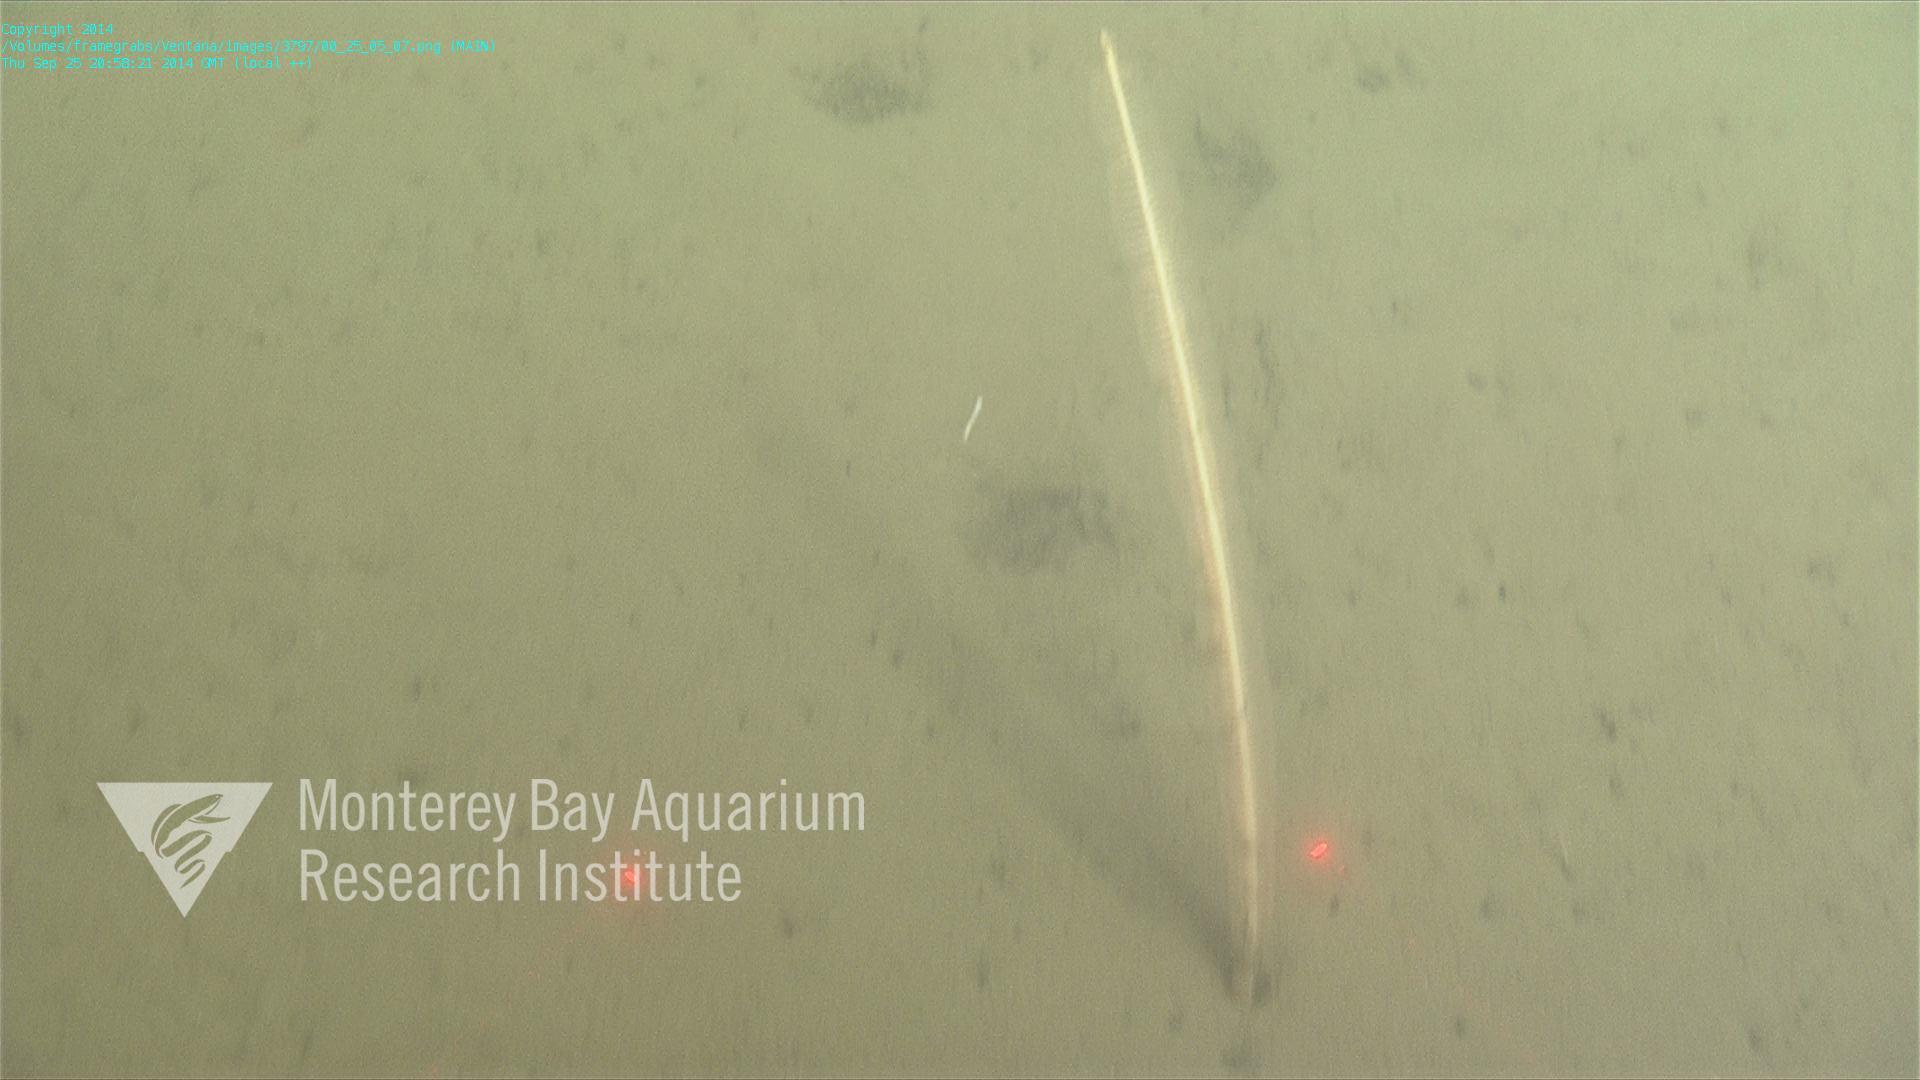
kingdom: Animalia
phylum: Cnidaria
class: Anthozoa
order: Scleralcyonacea
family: Virgulariidae
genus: Acanthoptilum
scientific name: Acanthoptilum
